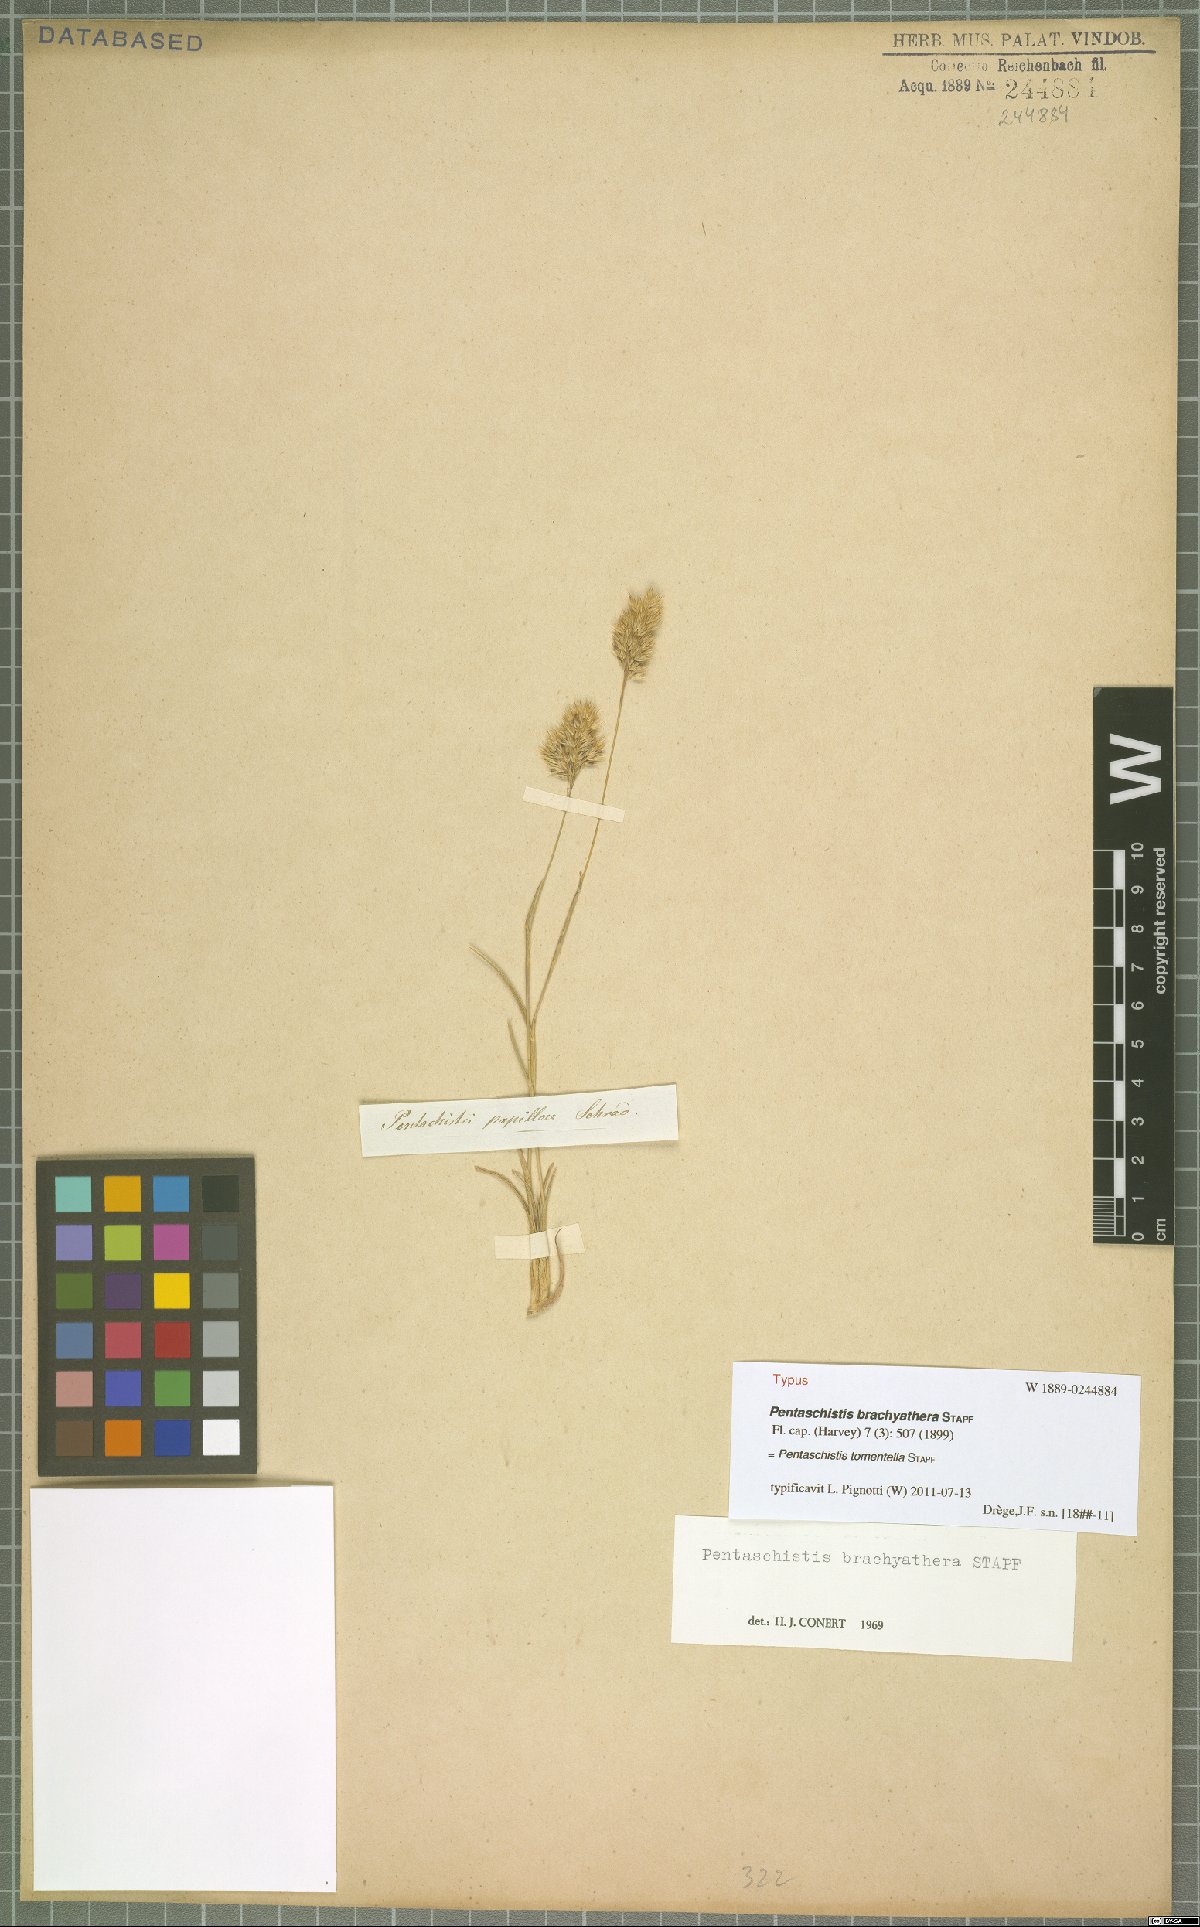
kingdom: Plantae
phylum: Tracheophyta
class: Liliopsida
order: Poales
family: Poaceae
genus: Pentameris
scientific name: Pentameris tomentella
